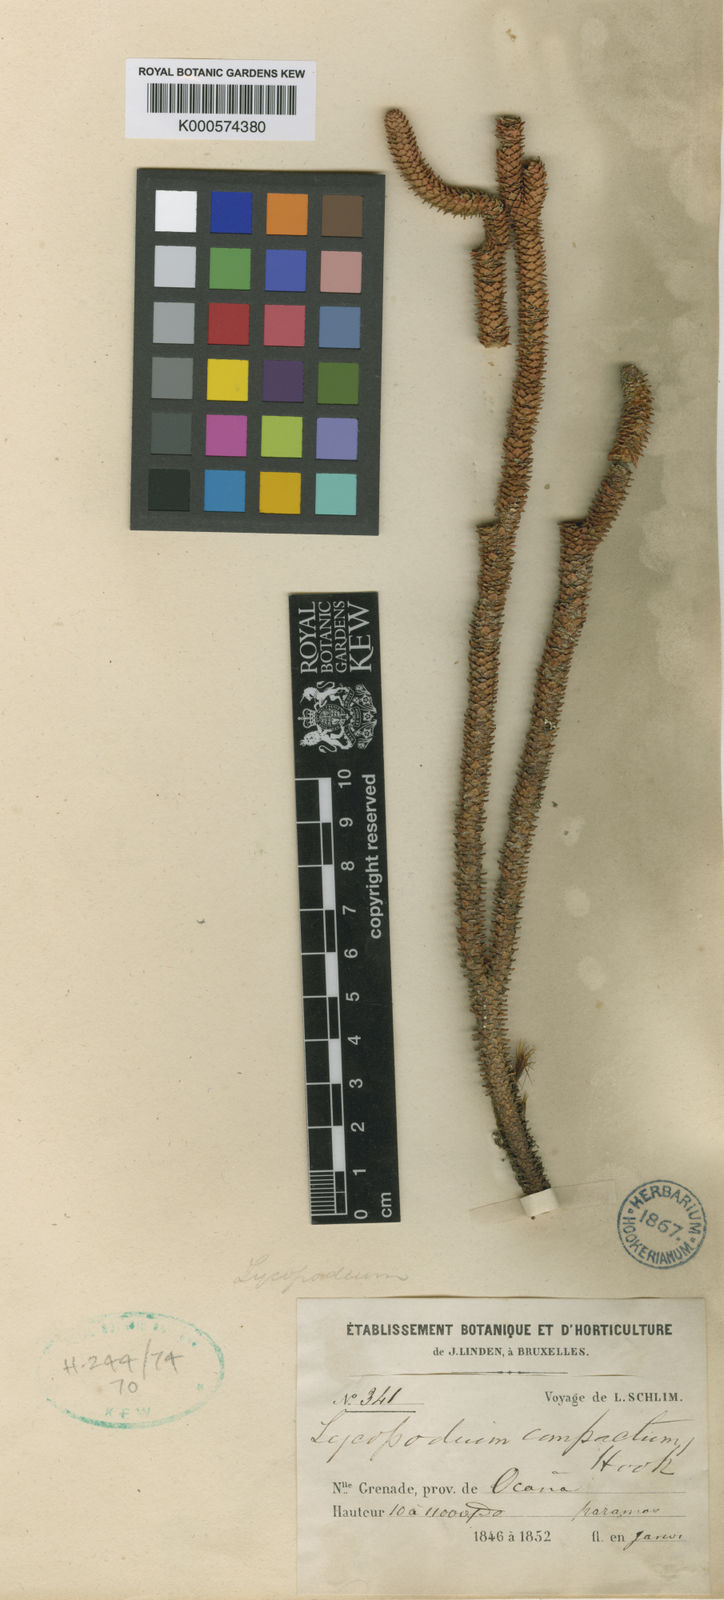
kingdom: Plantae
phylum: Tracheophyta
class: Lycopodiopsida
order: Lycopodiales
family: Lycopodiaceae
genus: Phlegmariurus
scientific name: Phlegmariurus serpentiformis
